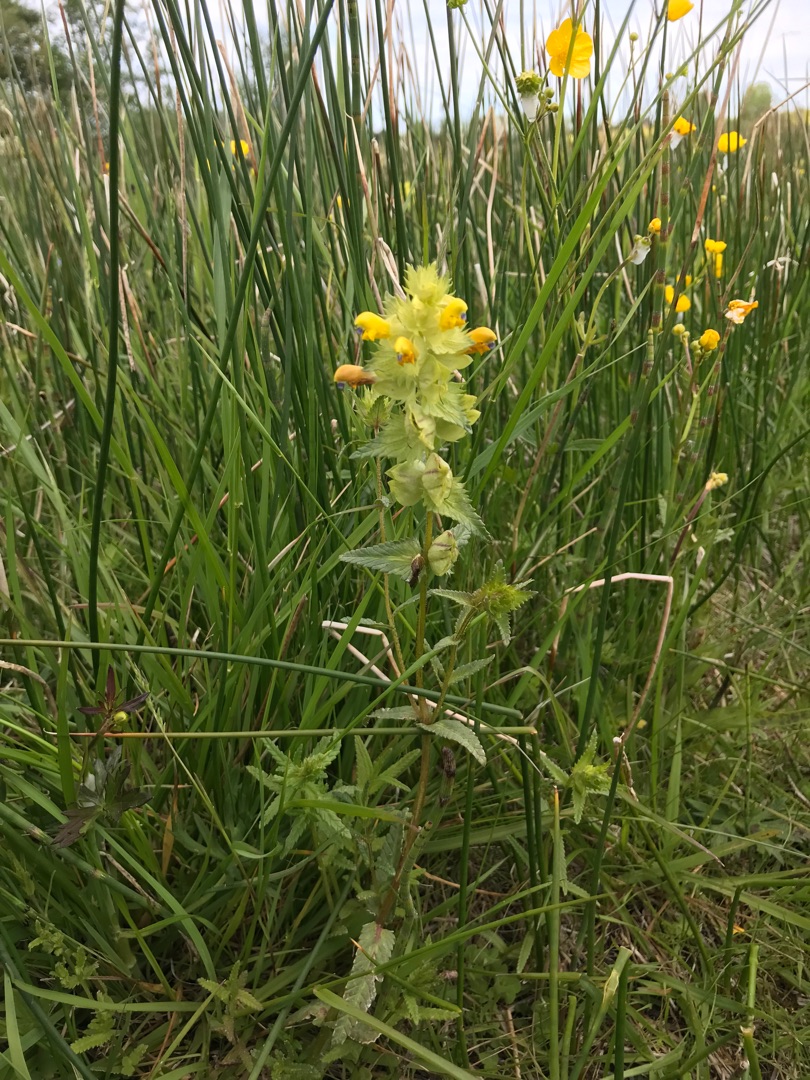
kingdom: Plantae
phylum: Tracheophyta
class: Magnoliopsida
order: Lamiales
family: Orobanchaceae
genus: Rhinanthus
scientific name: Rhinanthus
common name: Stor skjaller
